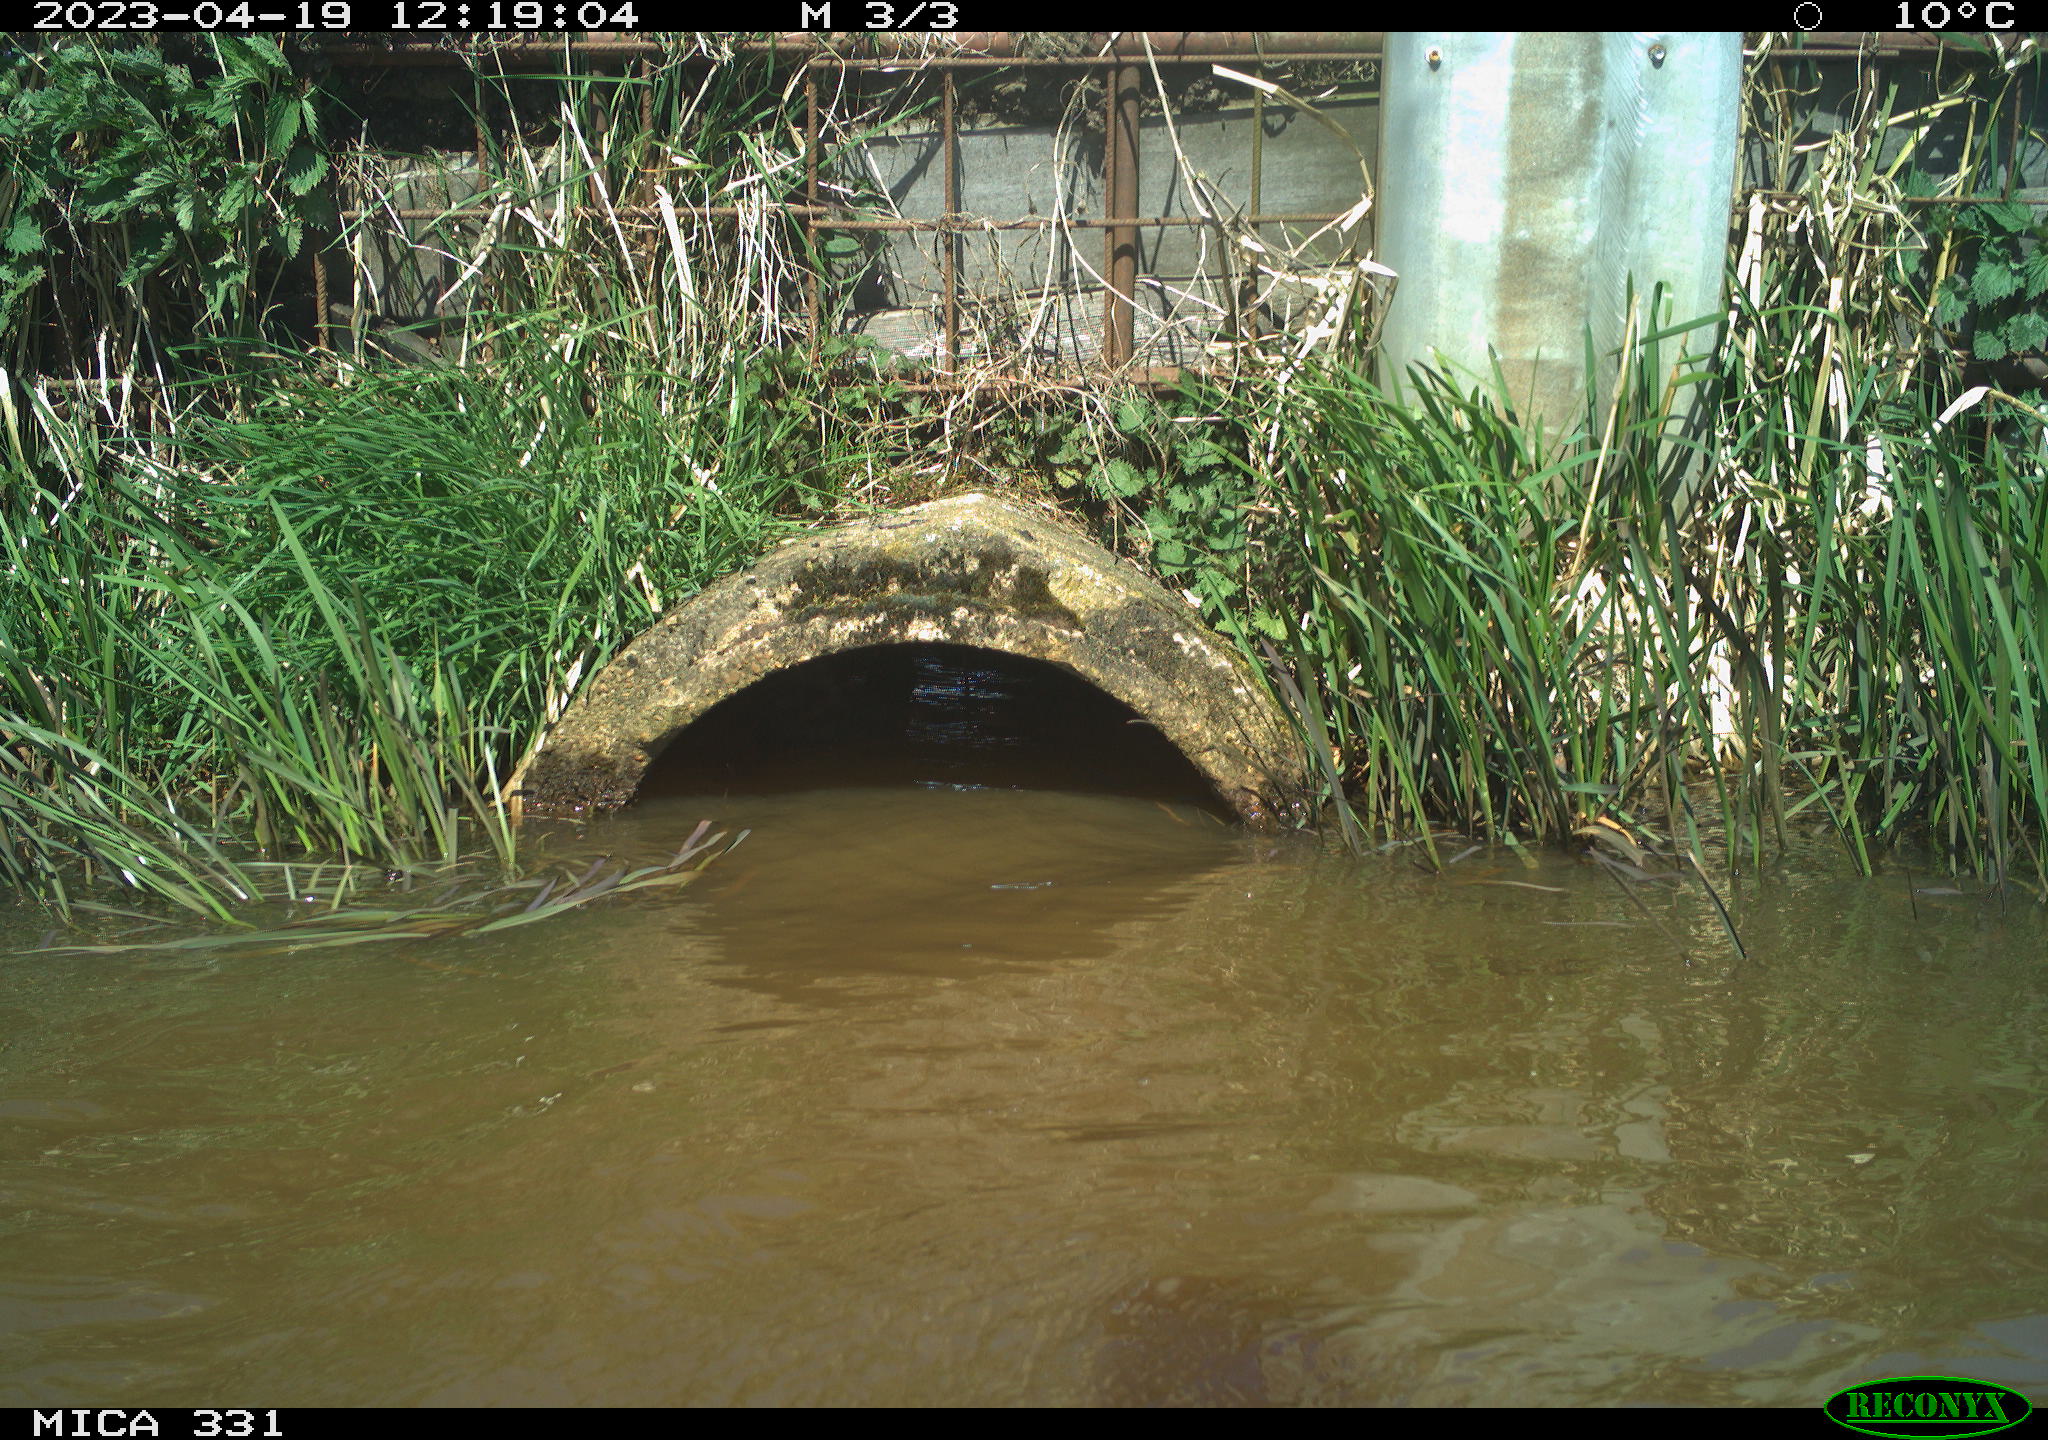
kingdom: Animalia
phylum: Chordata
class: Aves
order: Gruiformes
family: Rallidae
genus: Gallinula
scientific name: Gallinula chloropus
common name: Common moorhen
